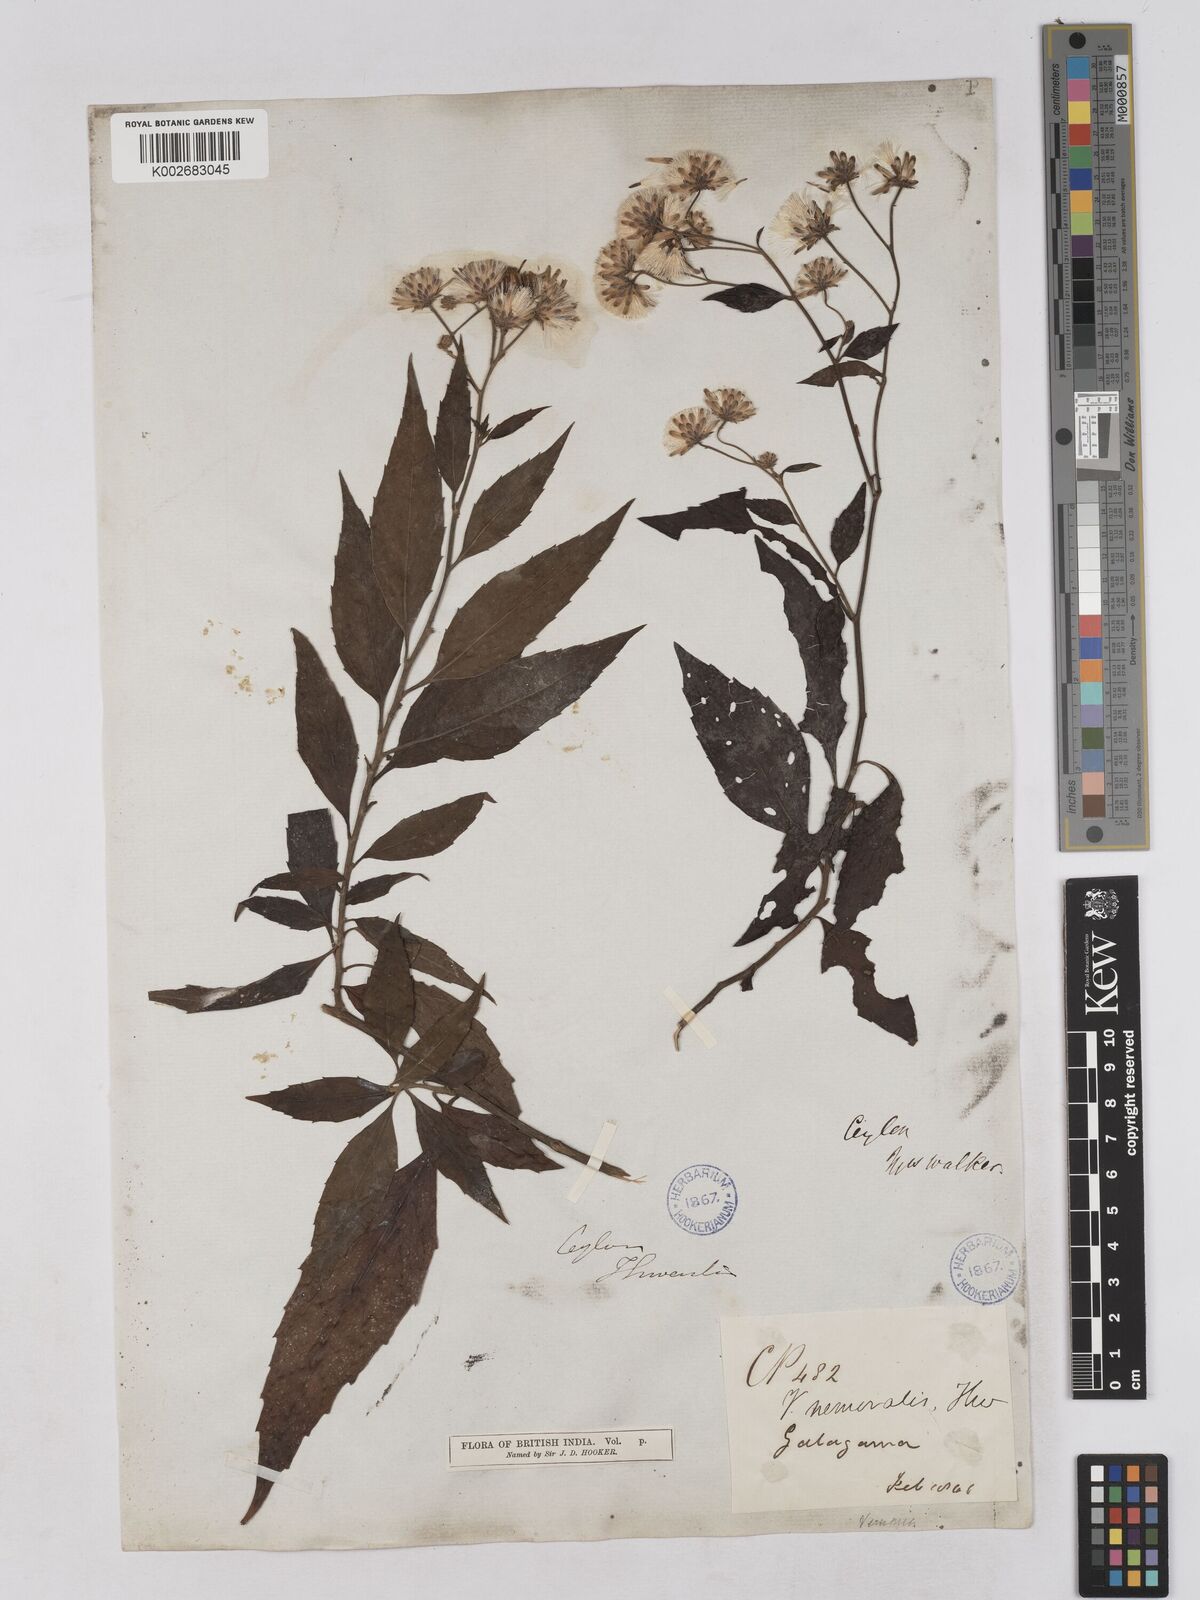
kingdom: Plantae
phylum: Tracheophyta
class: Magnoliopsida
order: Asterales
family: Asteraceae
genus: Acilepis
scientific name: Acilepis nemoralis
